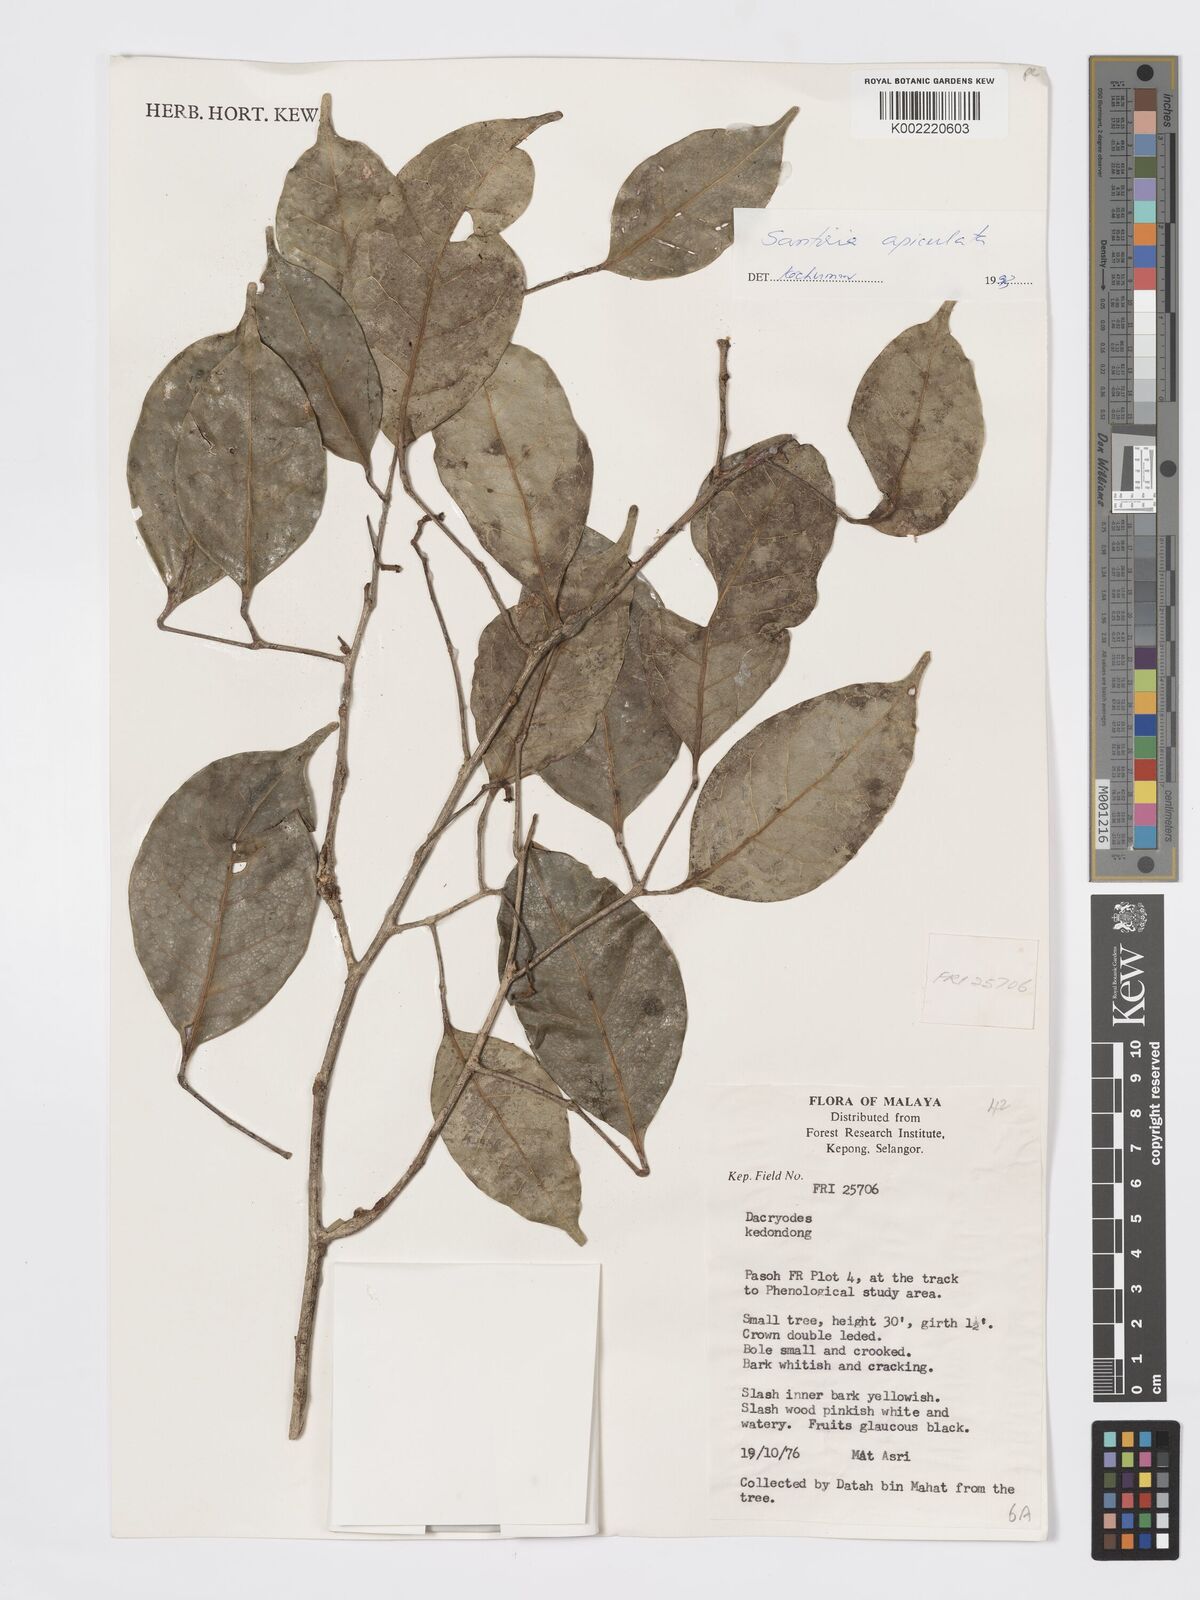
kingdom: Plantae
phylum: Tracheophyta
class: Magnoliopsida
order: Sapindales
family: Burseraceae
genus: Santiria
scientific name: Santiria apiculata
